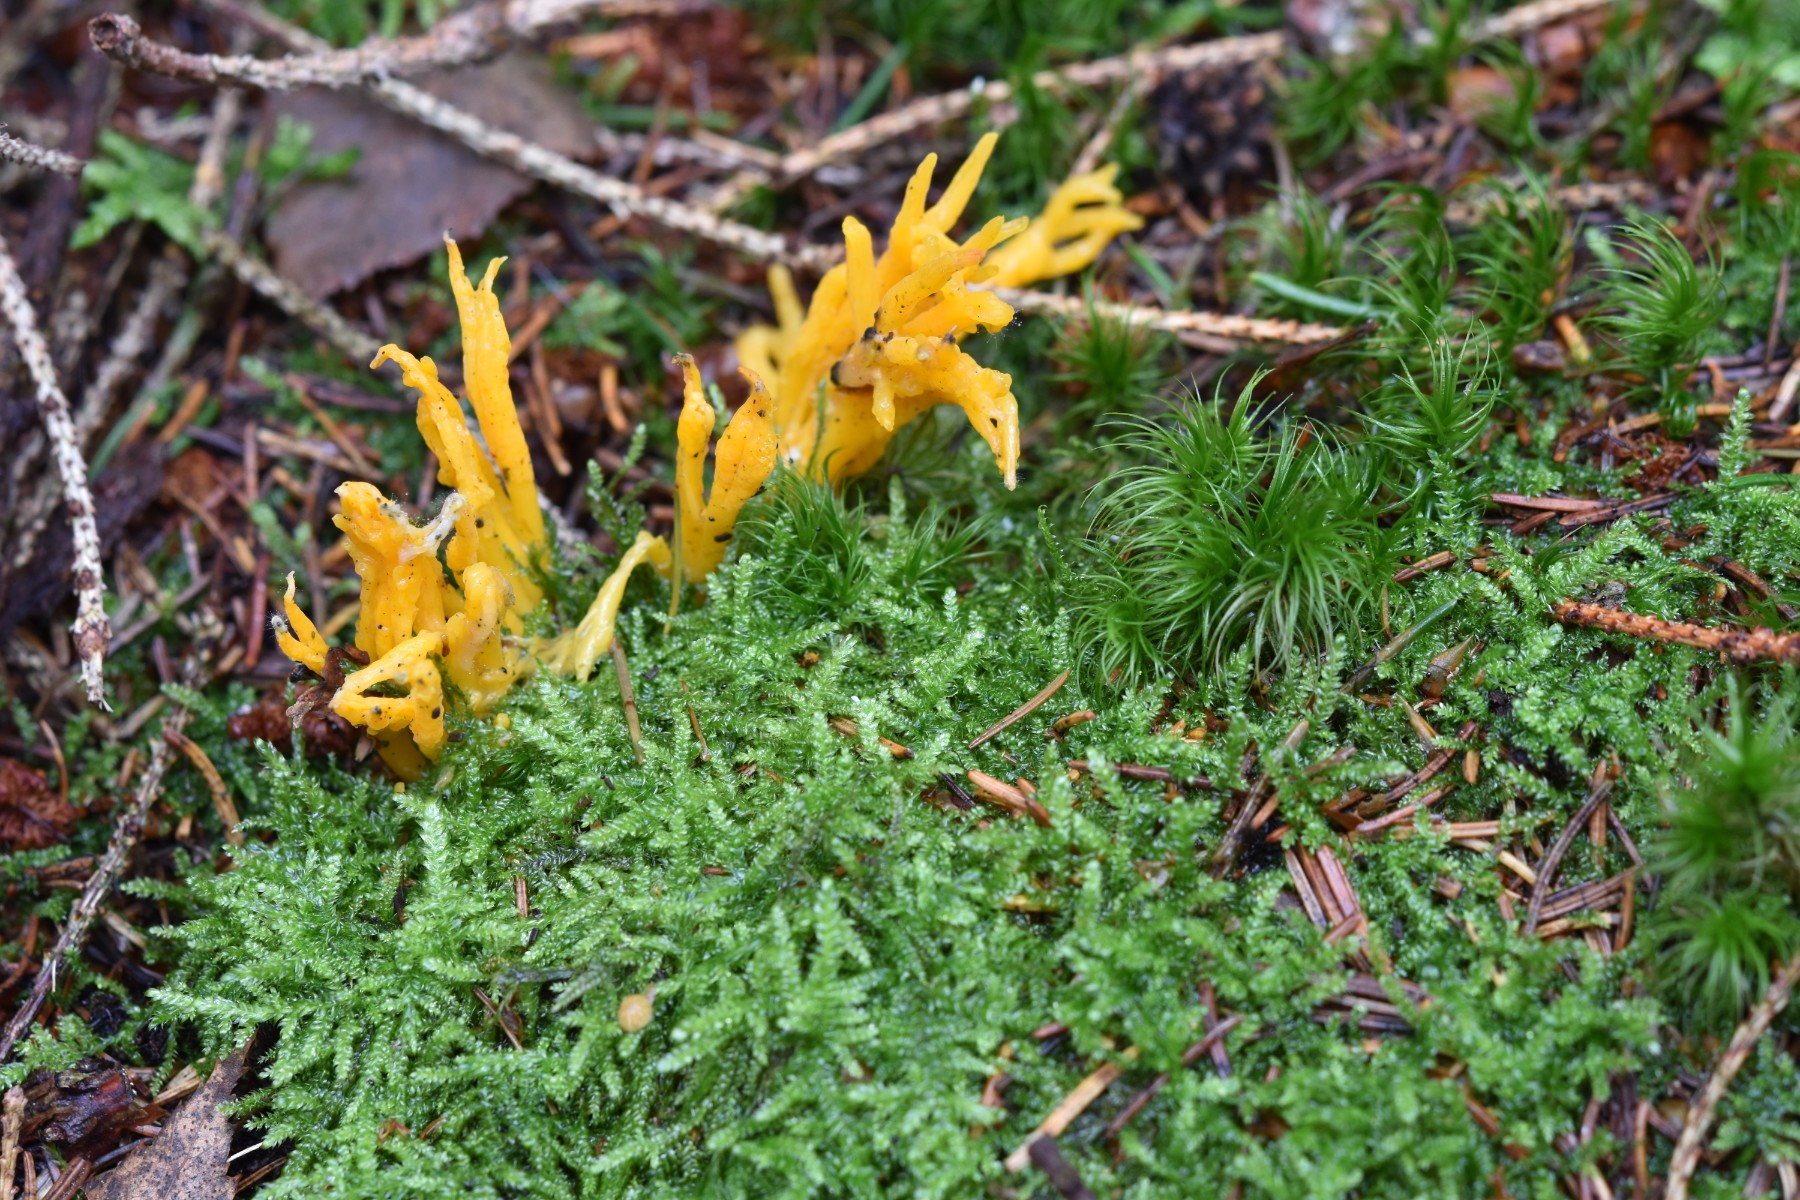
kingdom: Fungi
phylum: Basidiomycota
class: Dacrymycetes
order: Dacrymycetales
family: Dacrymycetaceae
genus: Calocera
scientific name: Calocera viscosa
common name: almindelig guldgaffel
